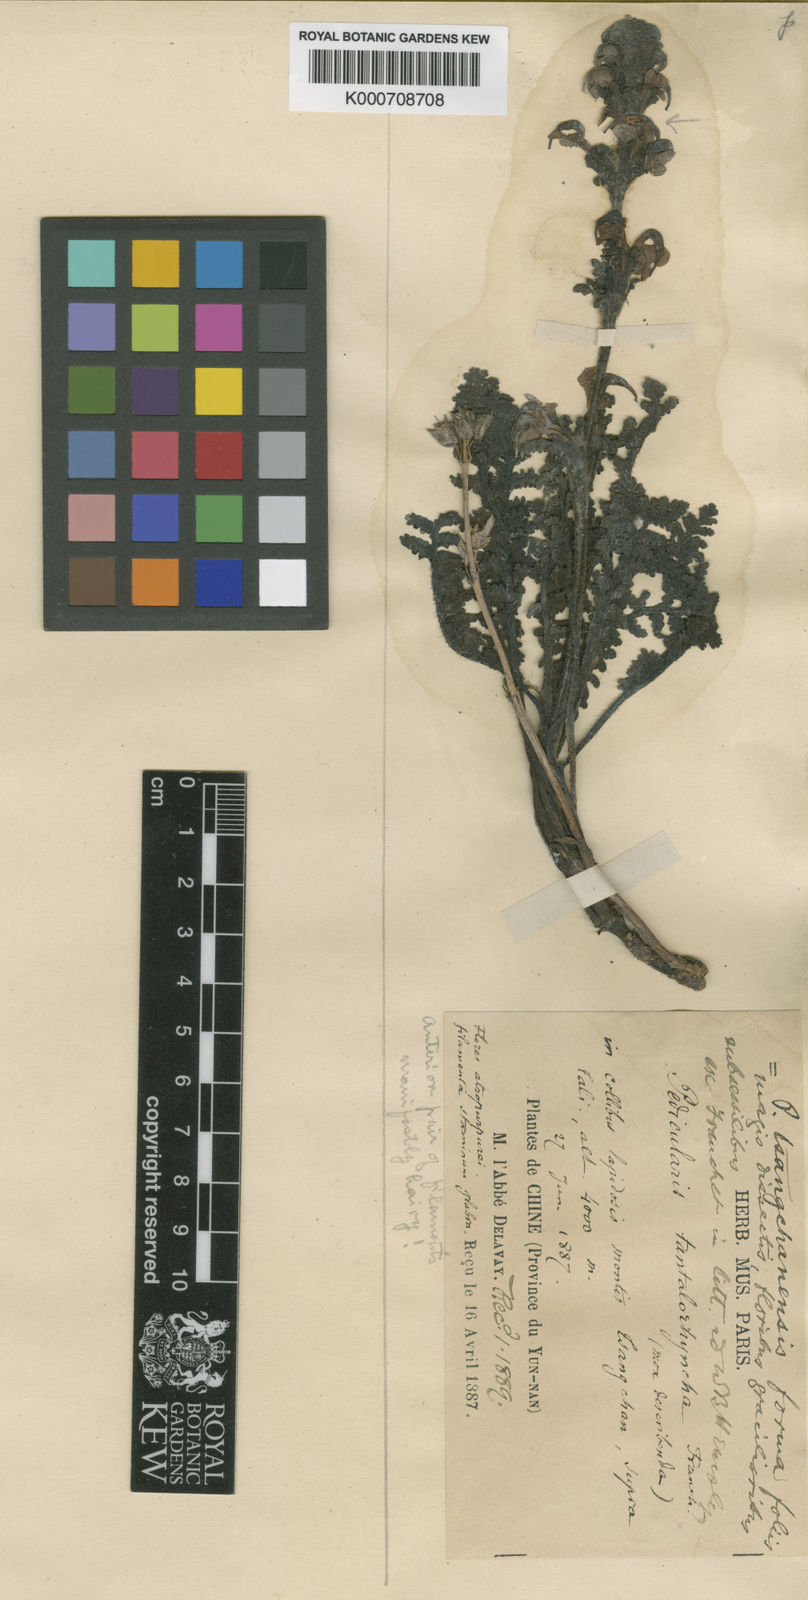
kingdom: Plantae
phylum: Tracheophyta
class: Magnoliopsida
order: Lamiales
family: Orobanchaceae
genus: Pedicularis
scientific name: Pedicularis
